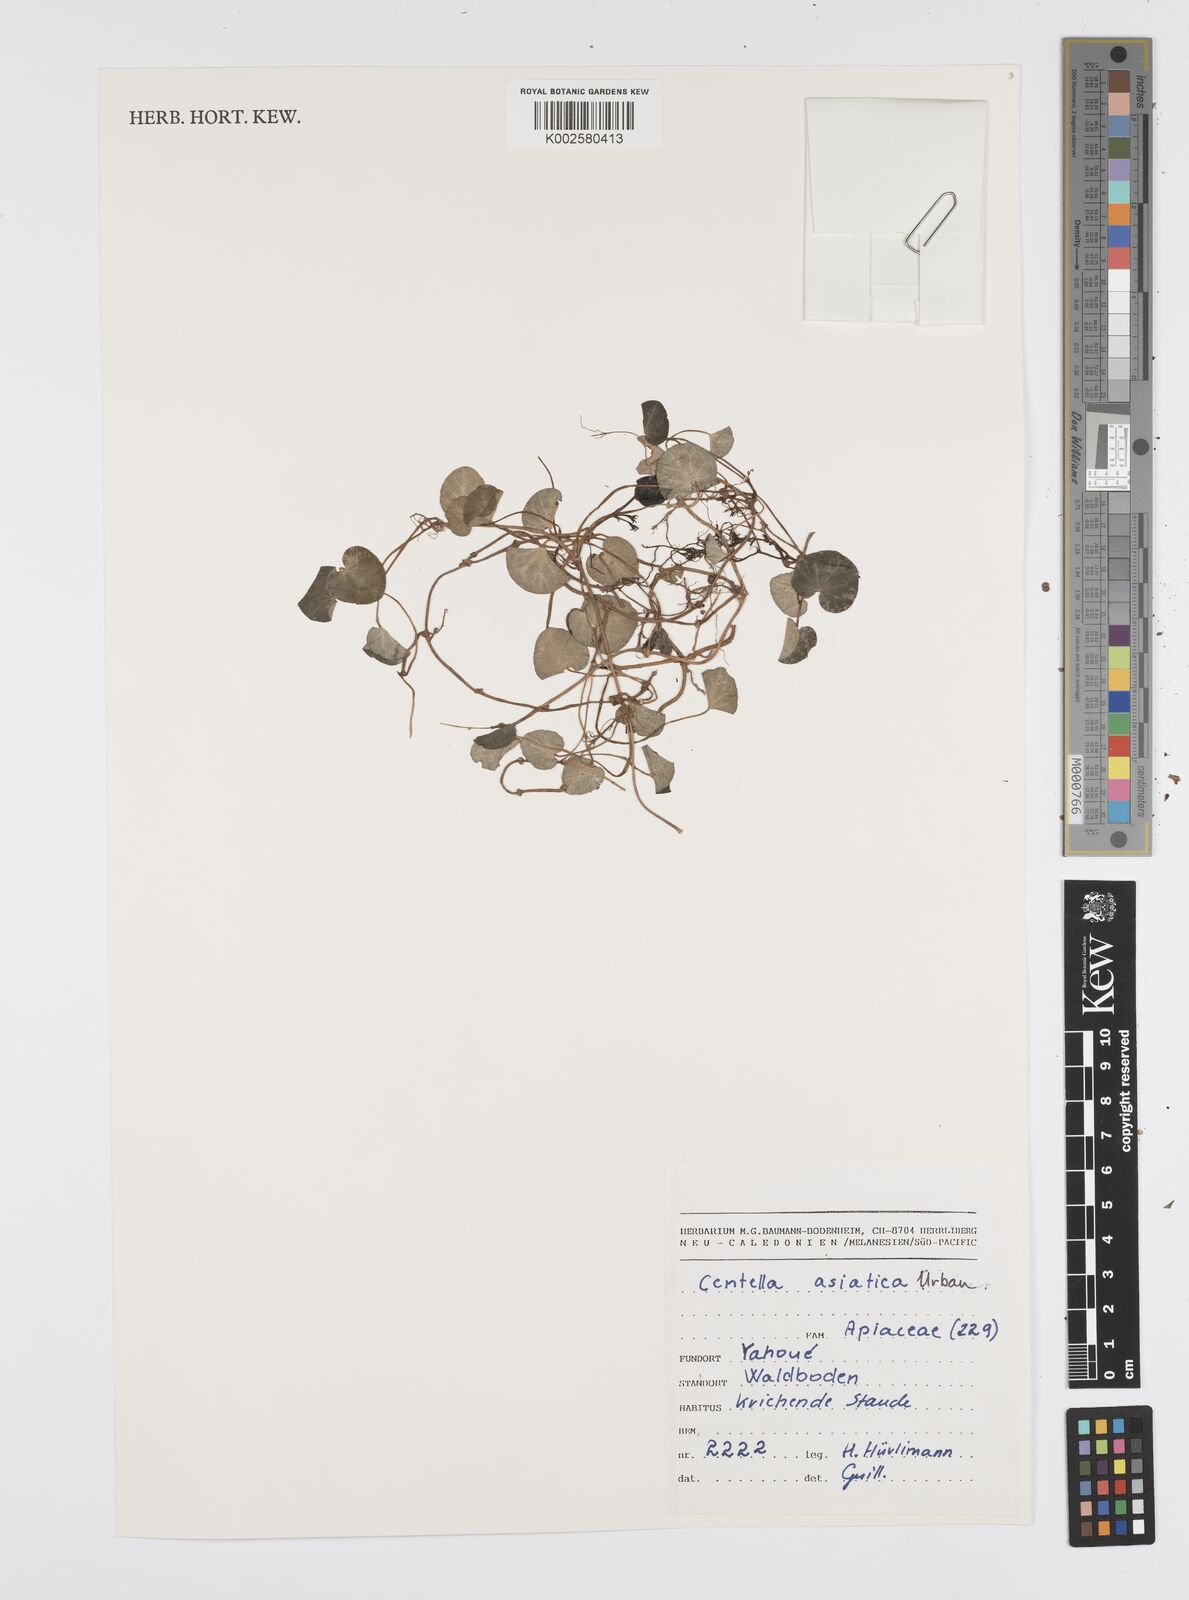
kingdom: Plantae
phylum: Tracheophyta
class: Magnoliopsida
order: Apiales
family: Apiaceae
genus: Centella
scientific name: Centella asiatica
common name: Spadeleaf
